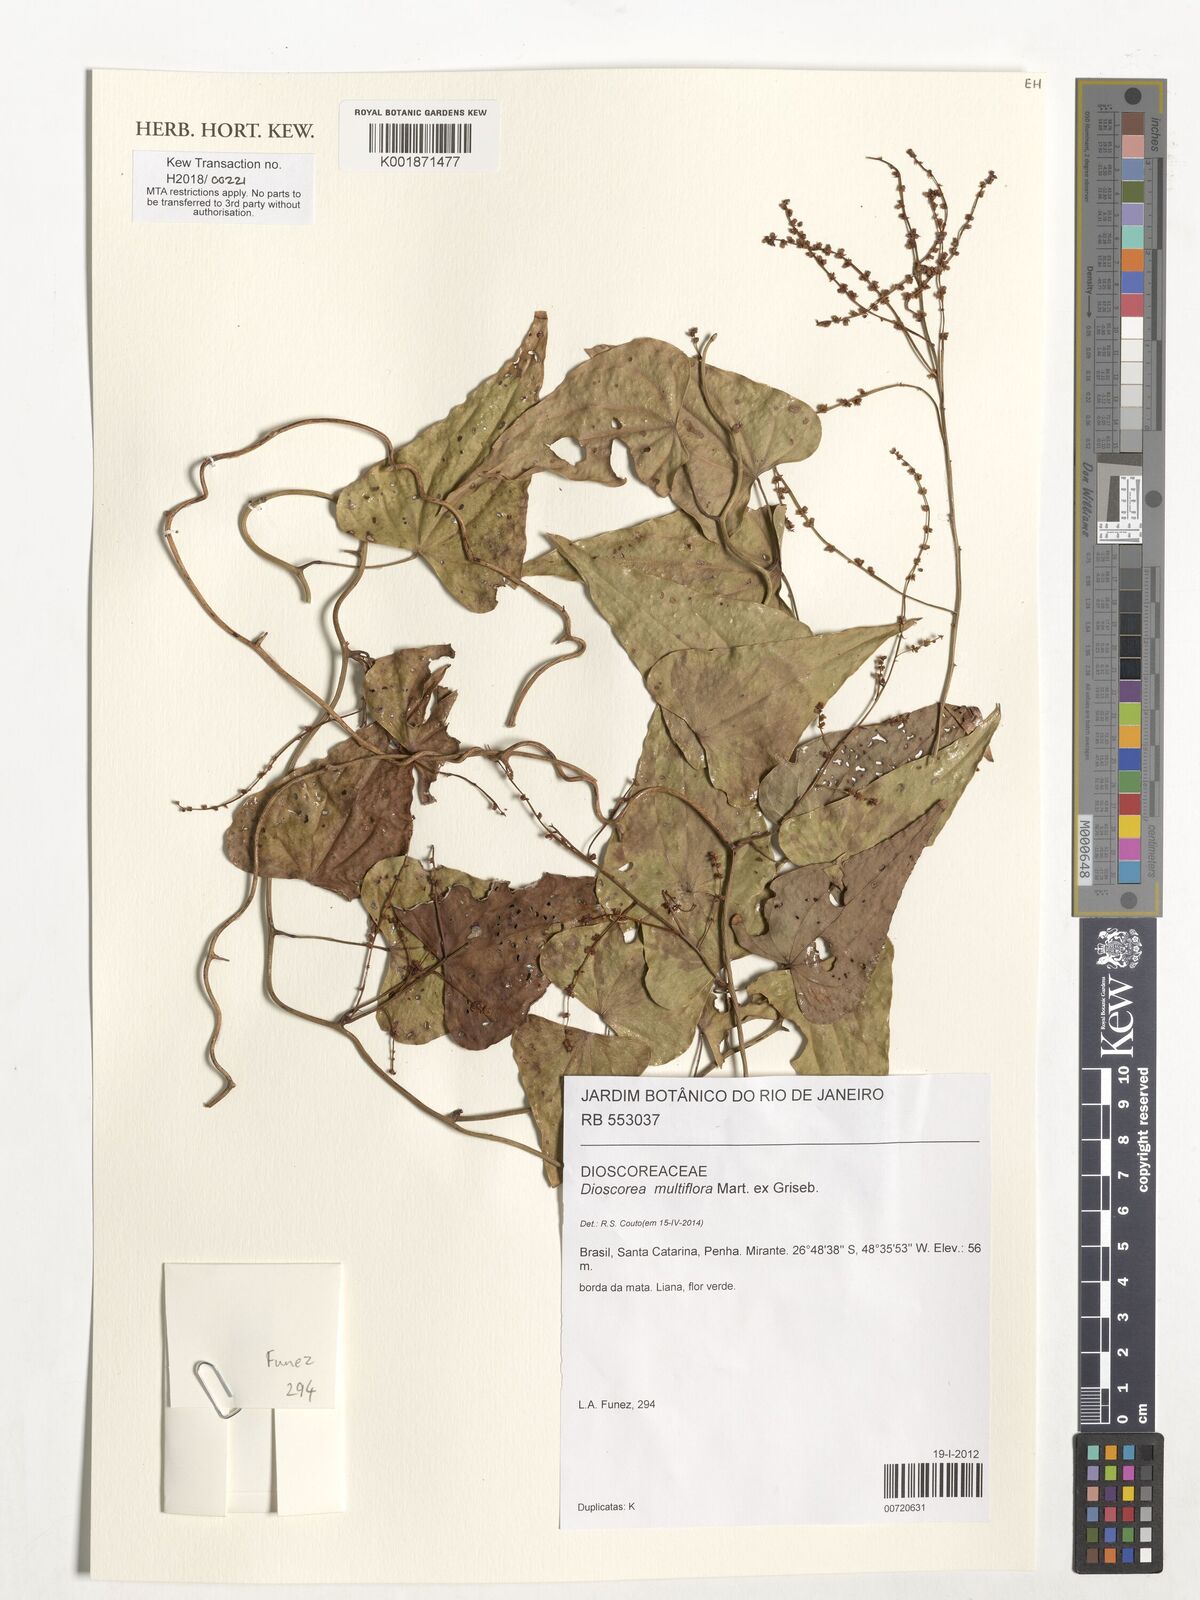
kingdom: Plantae
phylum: Tracheophyta
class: Liliopsida
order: Dioscoreales
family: Dioscoreaceae
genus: Dioscorea
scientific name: Dioscorea multiflora
